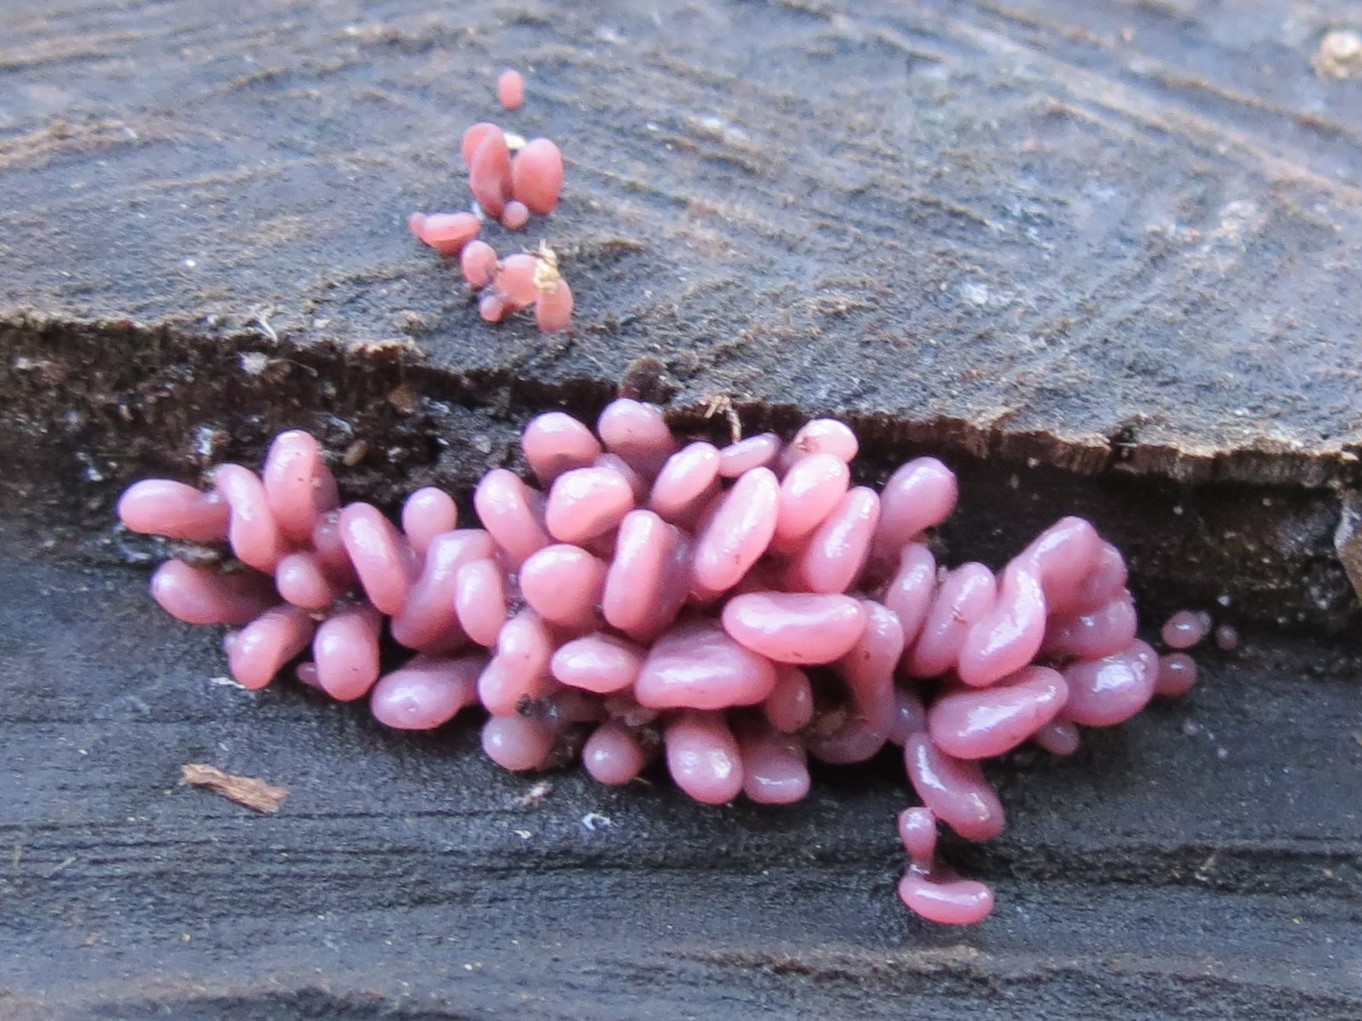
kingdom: Fungi
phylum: Ascomycota
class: Leotiomycetes
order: Helotiales
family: Gelatinodiscaceae
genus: Ascocoryne
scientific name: Ascocoryne sarcoides
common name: rødlilla sejskive
